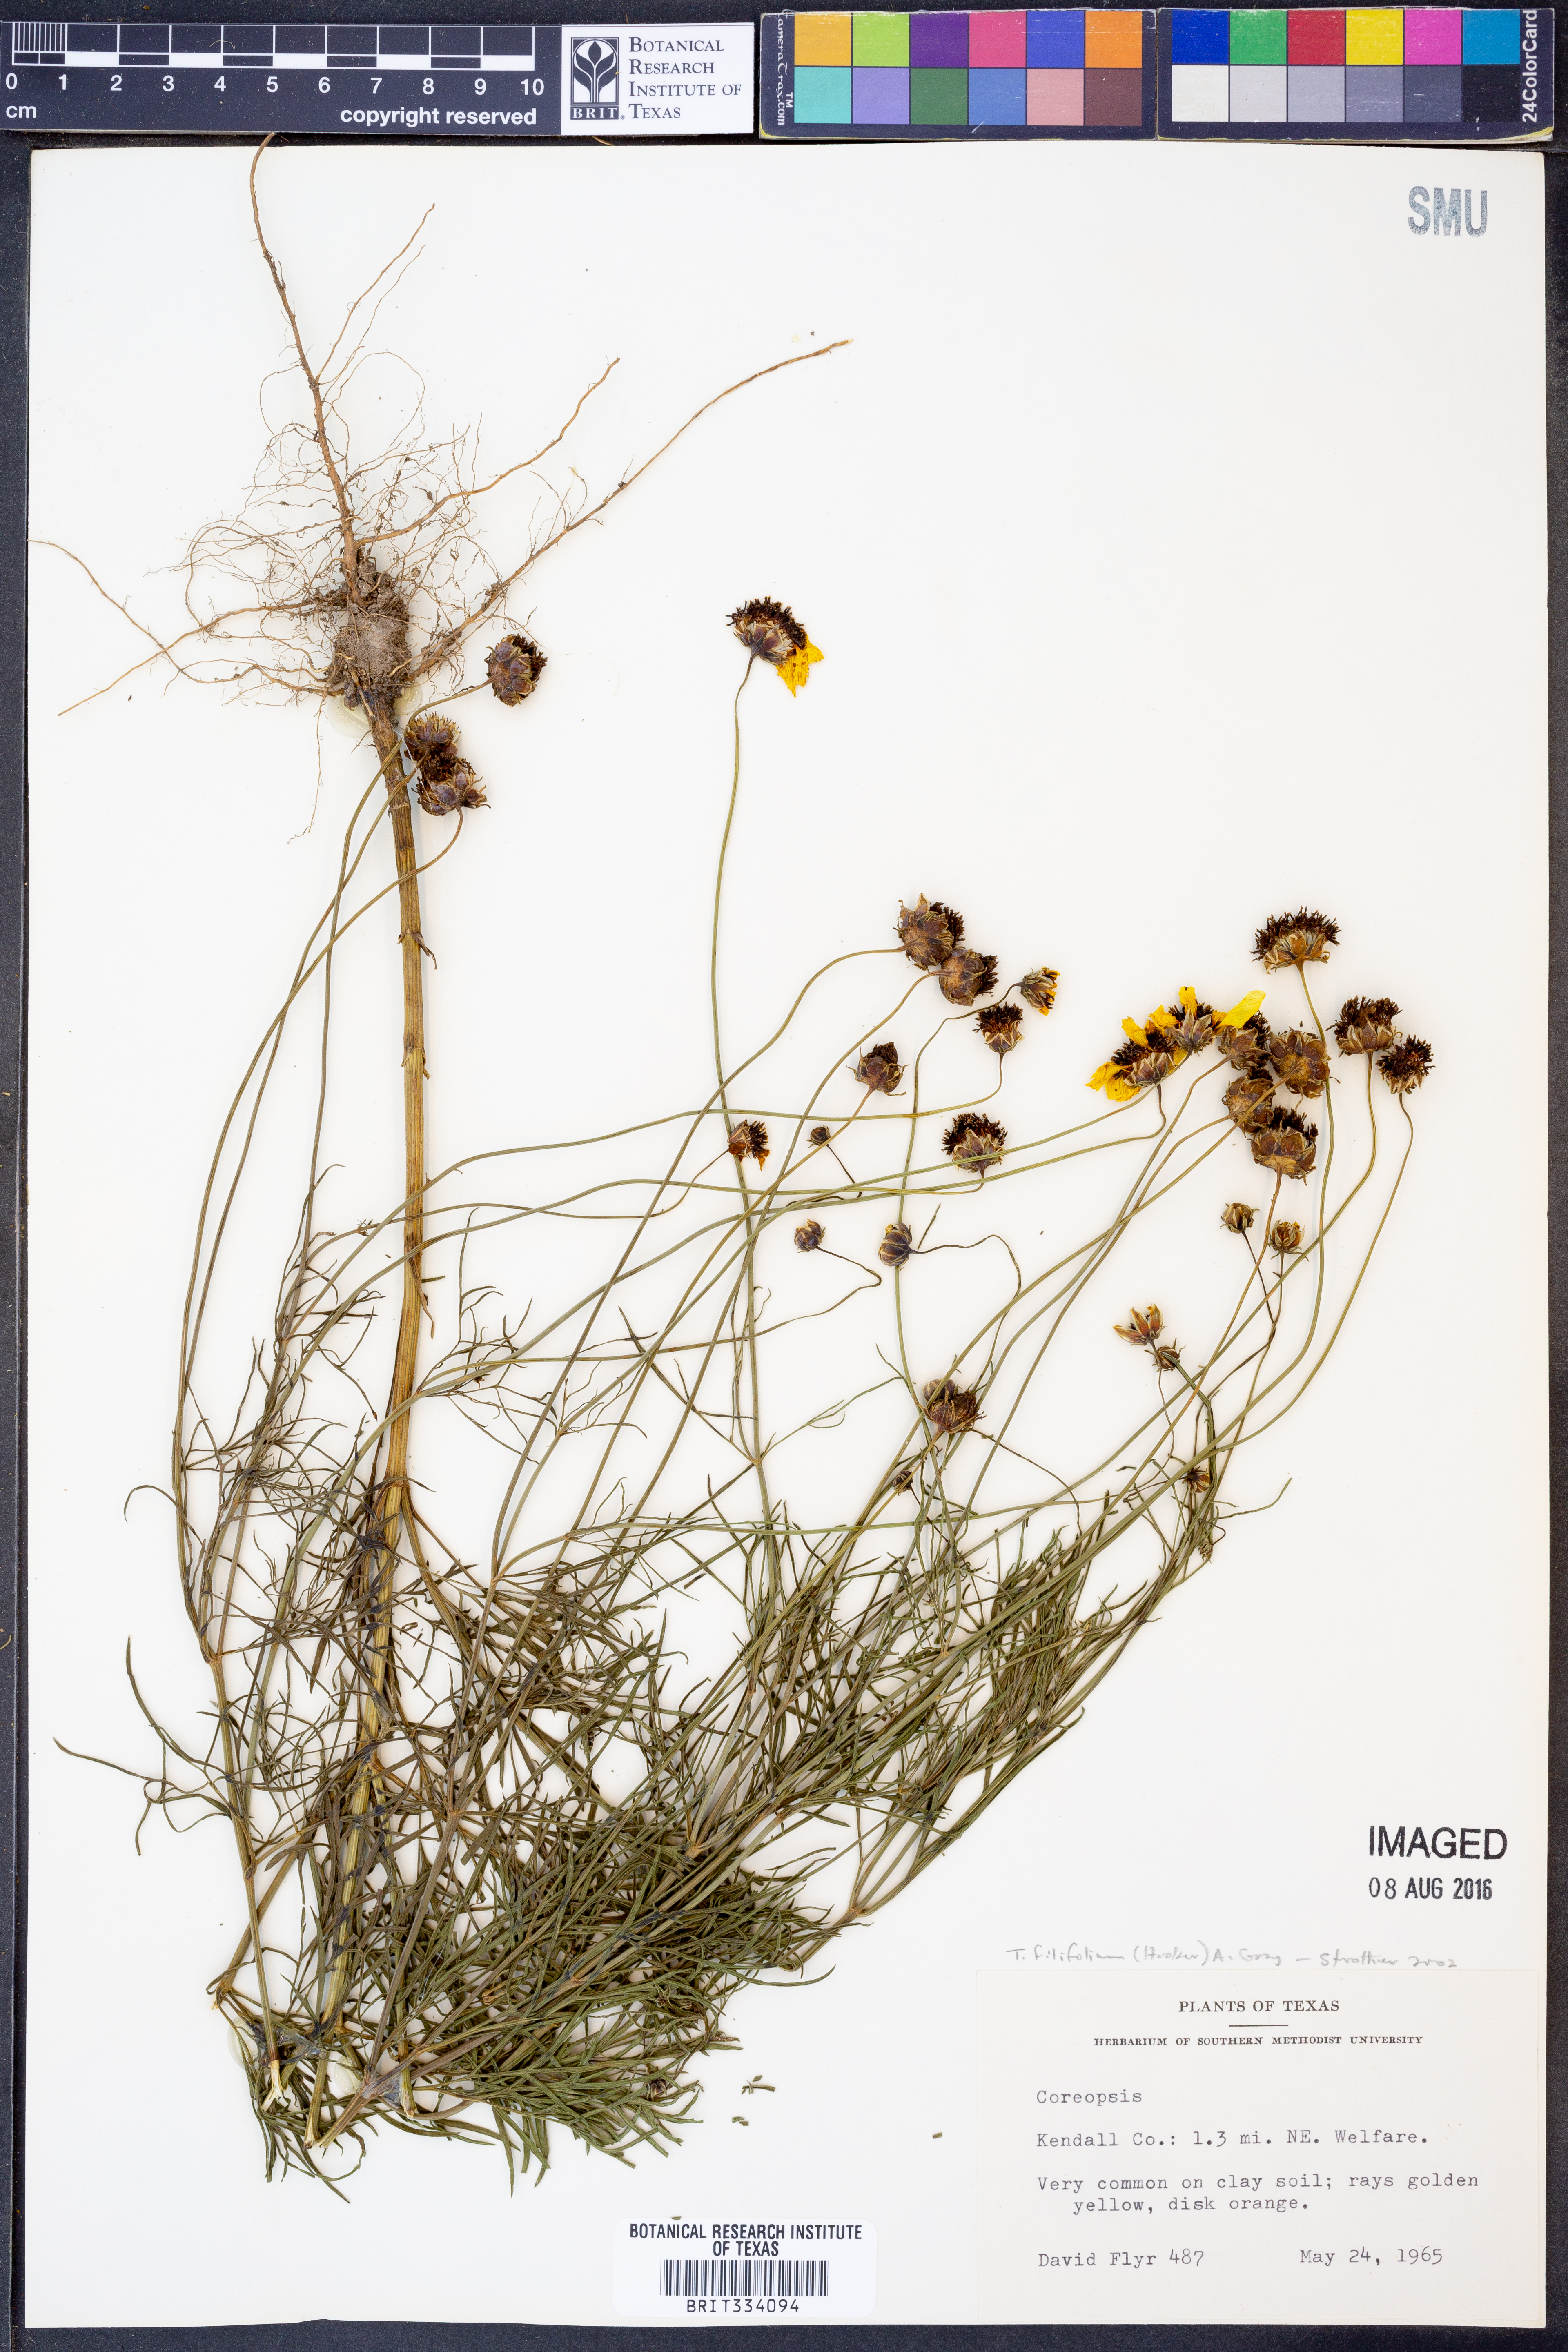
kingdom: Plantae
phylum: Tracheophyta
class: Magnoliopsida
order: Asterales
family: Asteraceae
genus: Thelesperma
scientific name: Thelesperma filifolium
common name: Stiff greenthread
